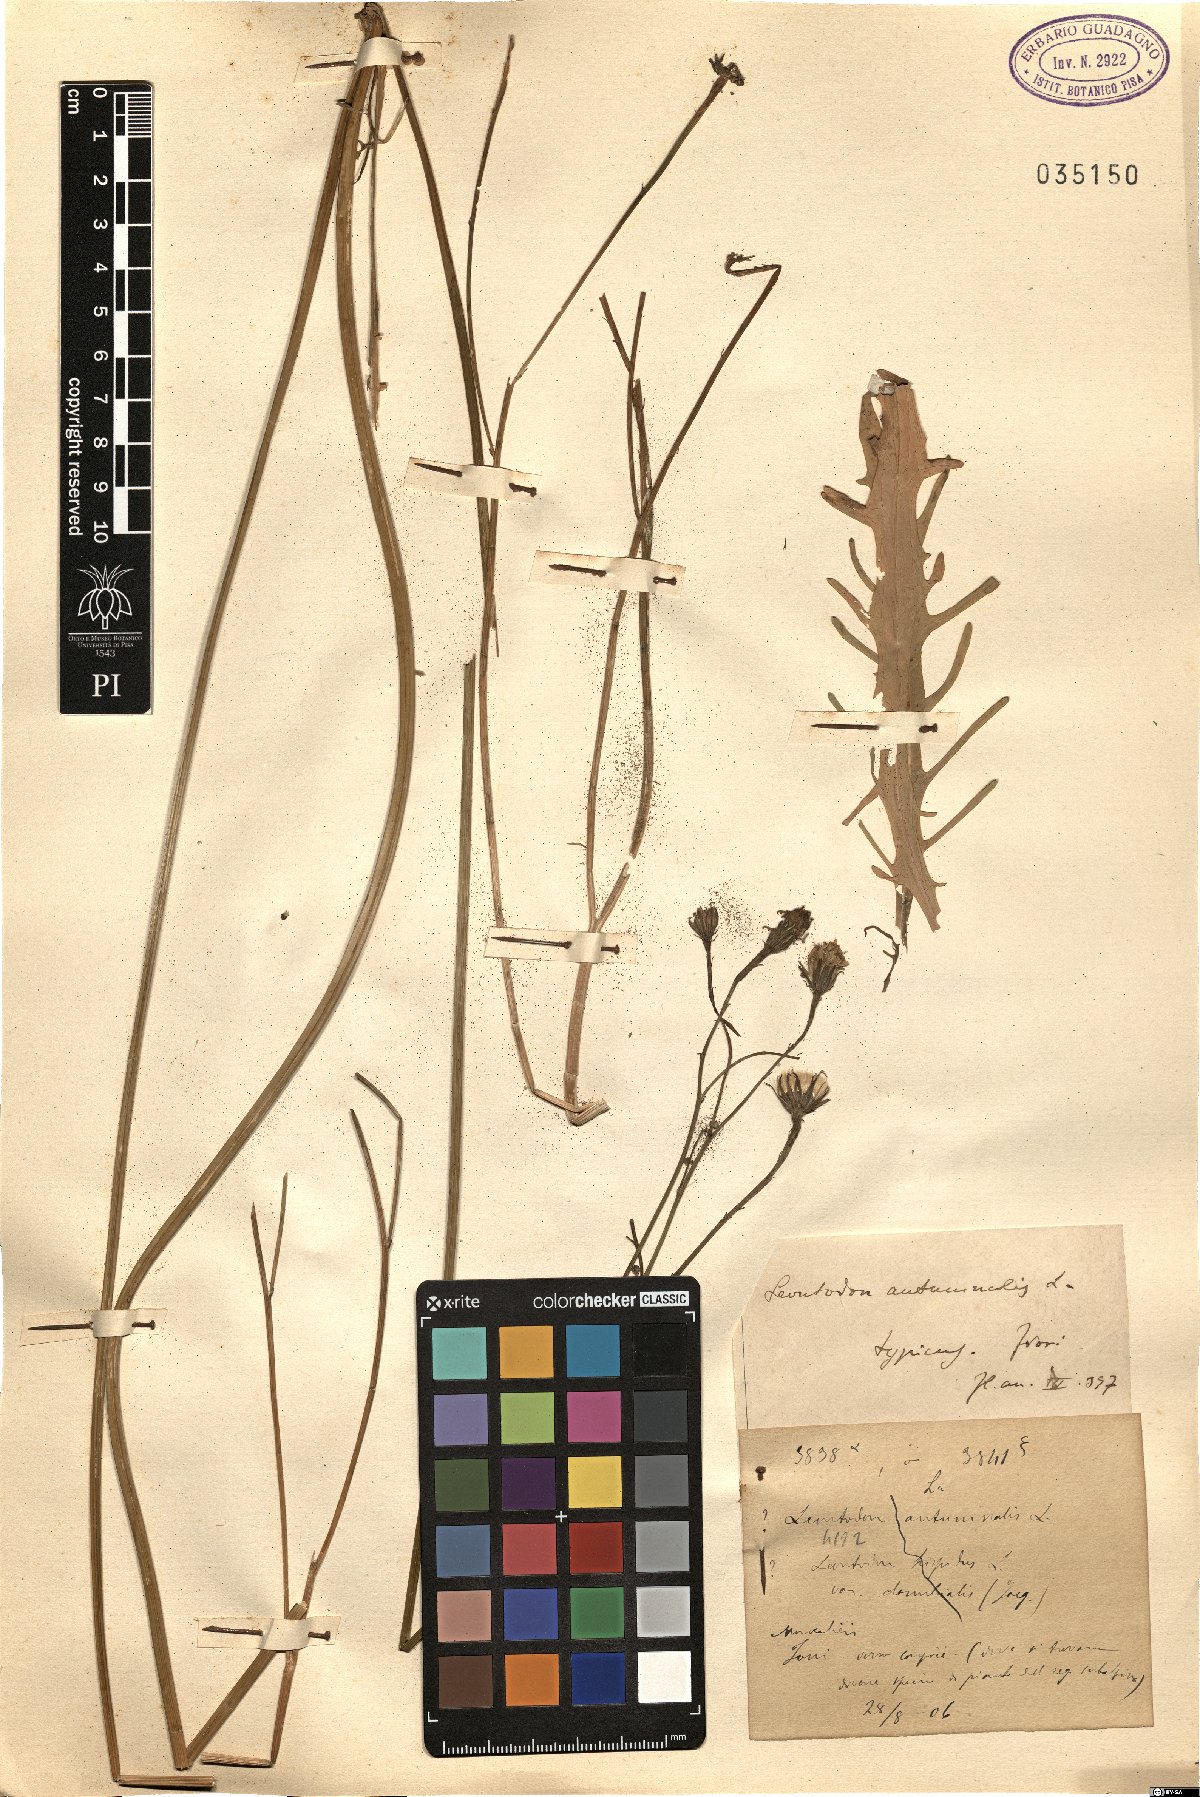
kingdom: Plantae
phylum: Tracheophyta
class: Magnoliopsida
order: Asterales
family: Asteraceae
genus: Scorzoneroides
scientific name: Scorzoneroides autumnalis
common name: Autumn hawkbit
